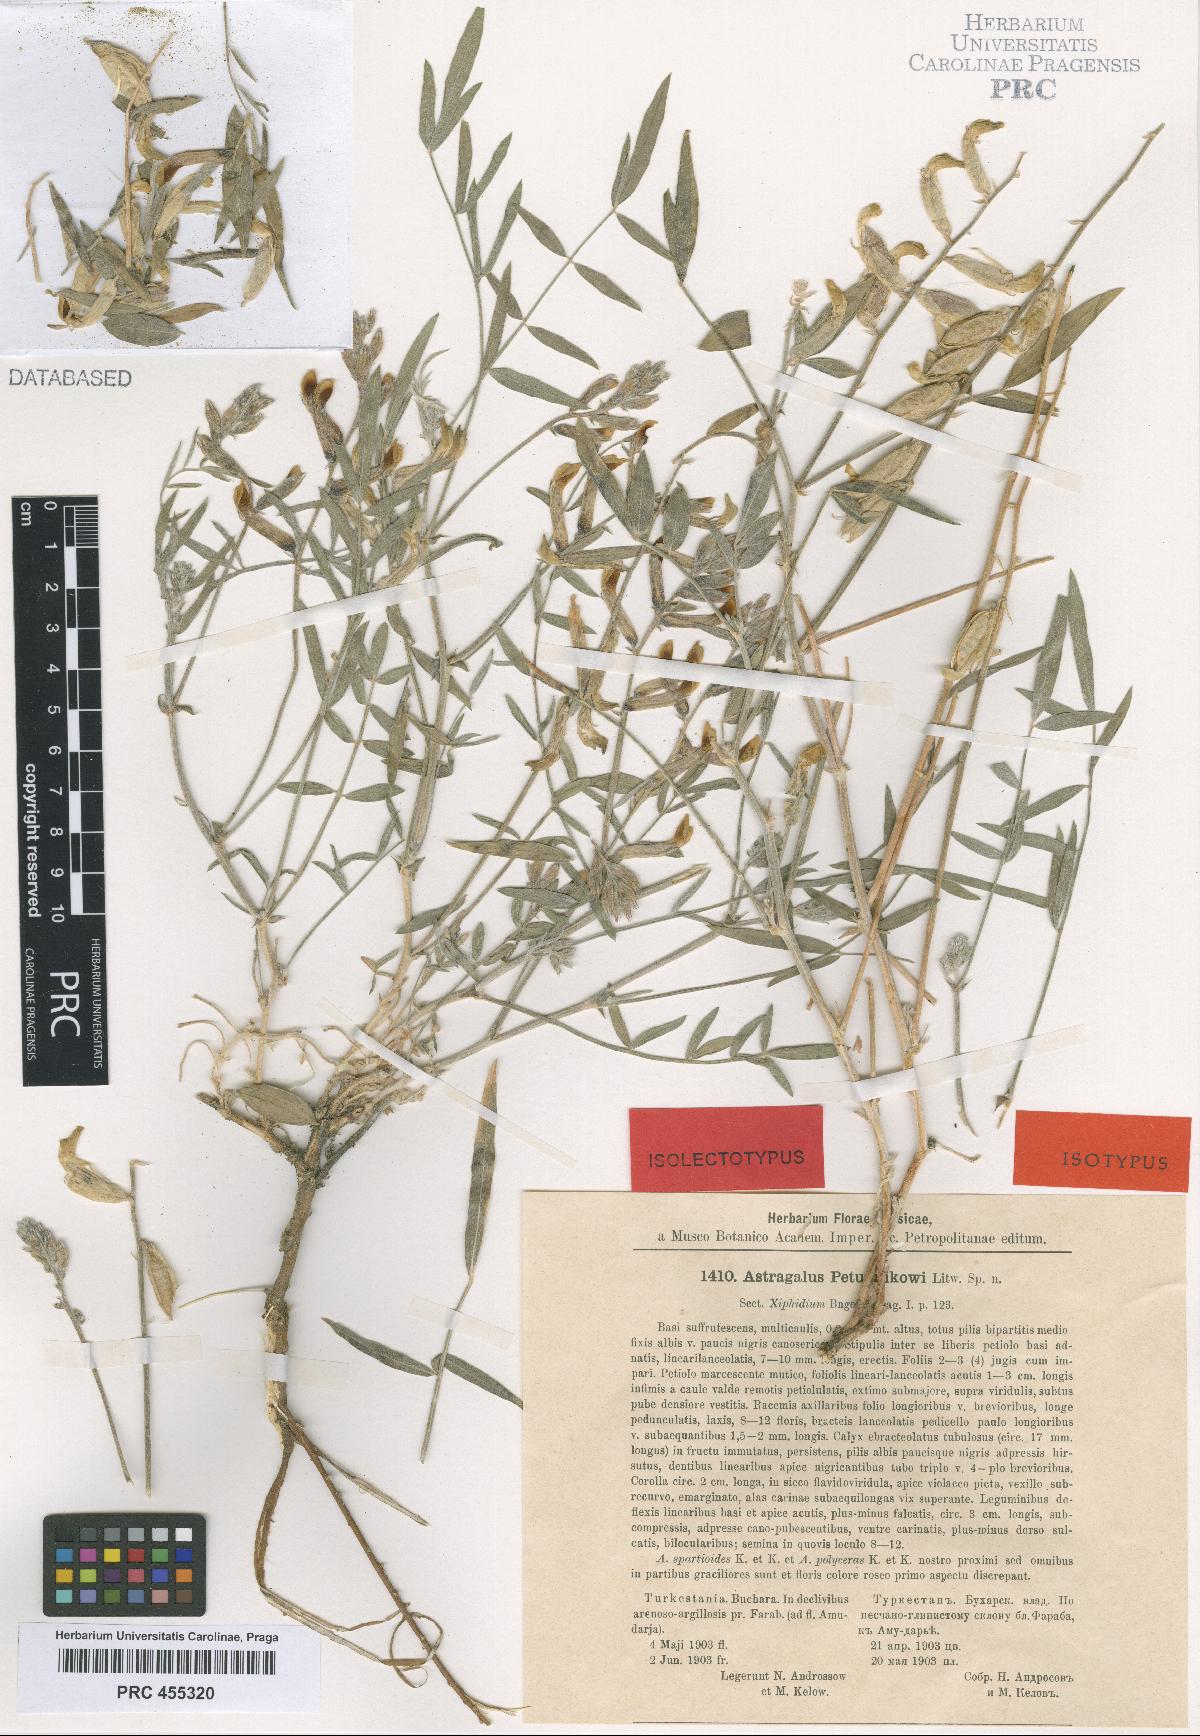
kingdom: Plantae
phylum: Tracheophyta
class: Magnoliopsida
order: Fabales
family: Fabaceae
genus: Astragalus
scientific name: Astragalus petunnikowii
